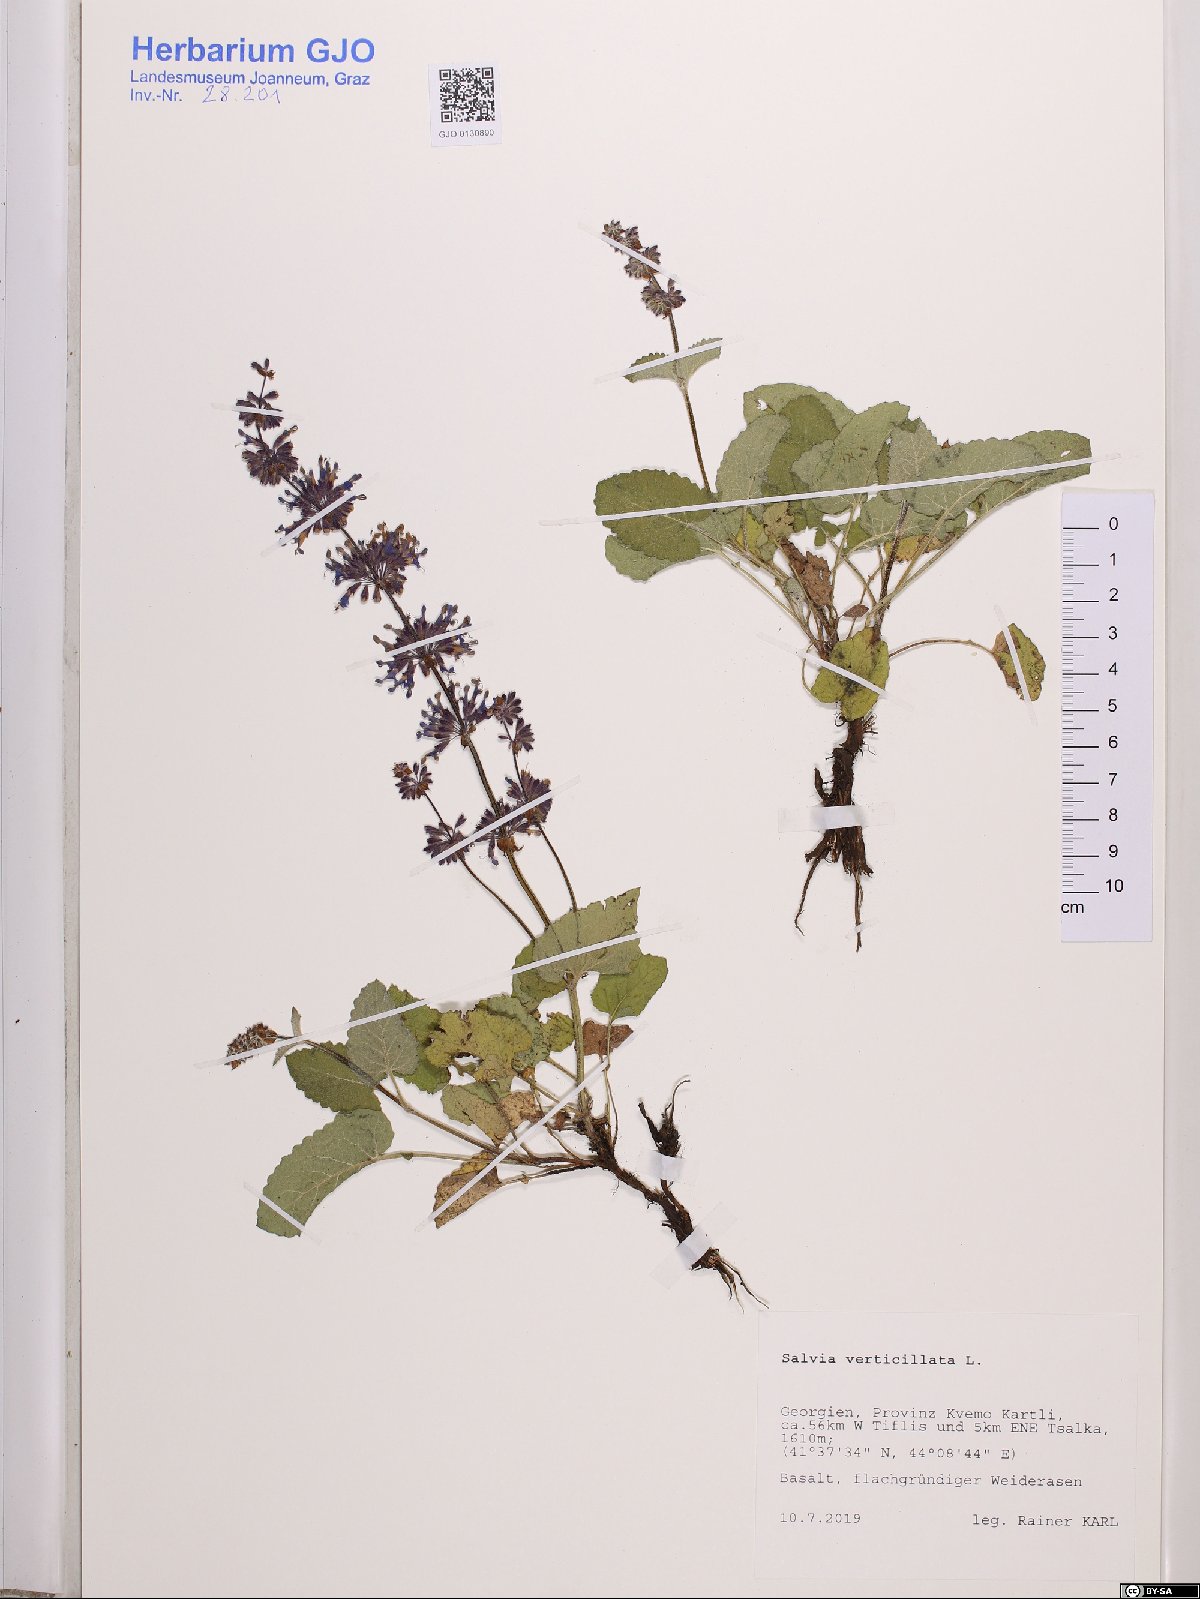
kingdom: Plantae
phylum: Tracheophyta
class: Magnoliopsida
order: Lamiales
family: Lamiaceae
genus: Salvia
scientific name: Salvia verticillata
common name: Whorled clary
